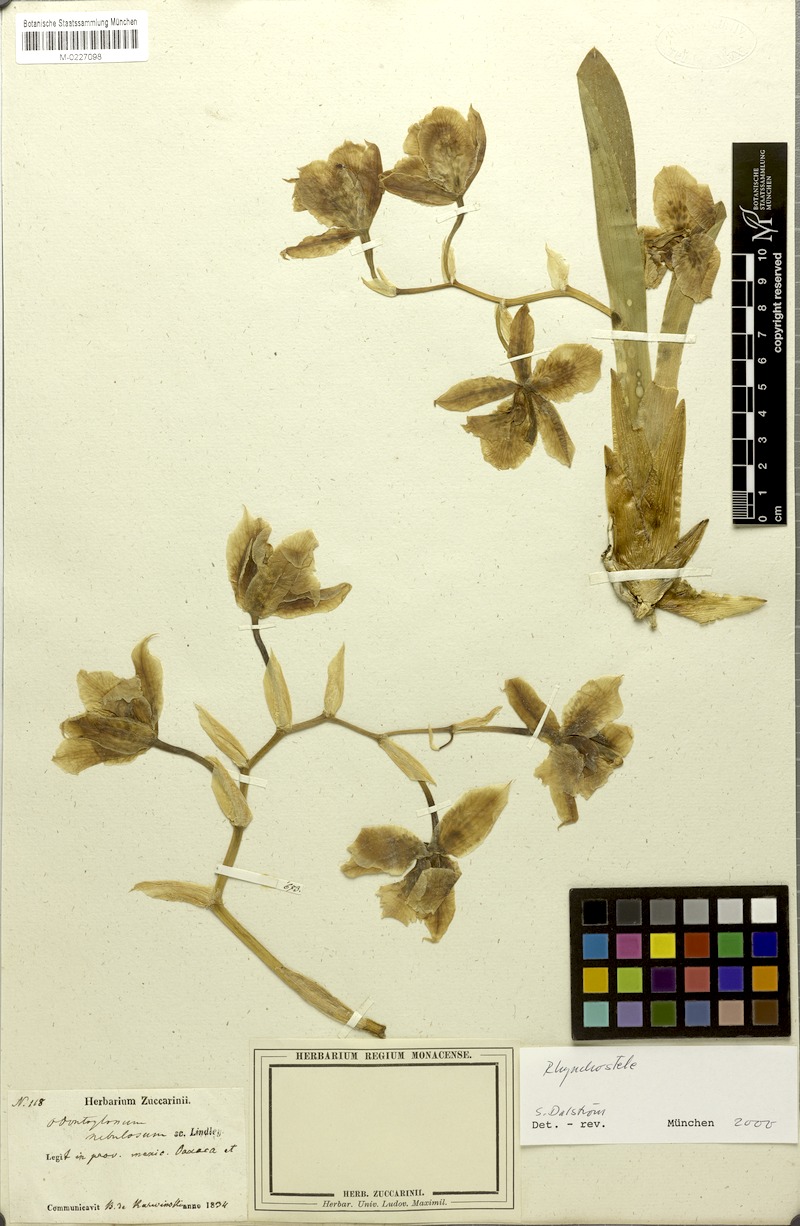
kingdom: Plantae
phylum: Tracheophyta
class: Liliopsida
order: Asparagales
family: Orchidaceae
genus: Rhynchostele
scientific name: Rhynchostele aptera
